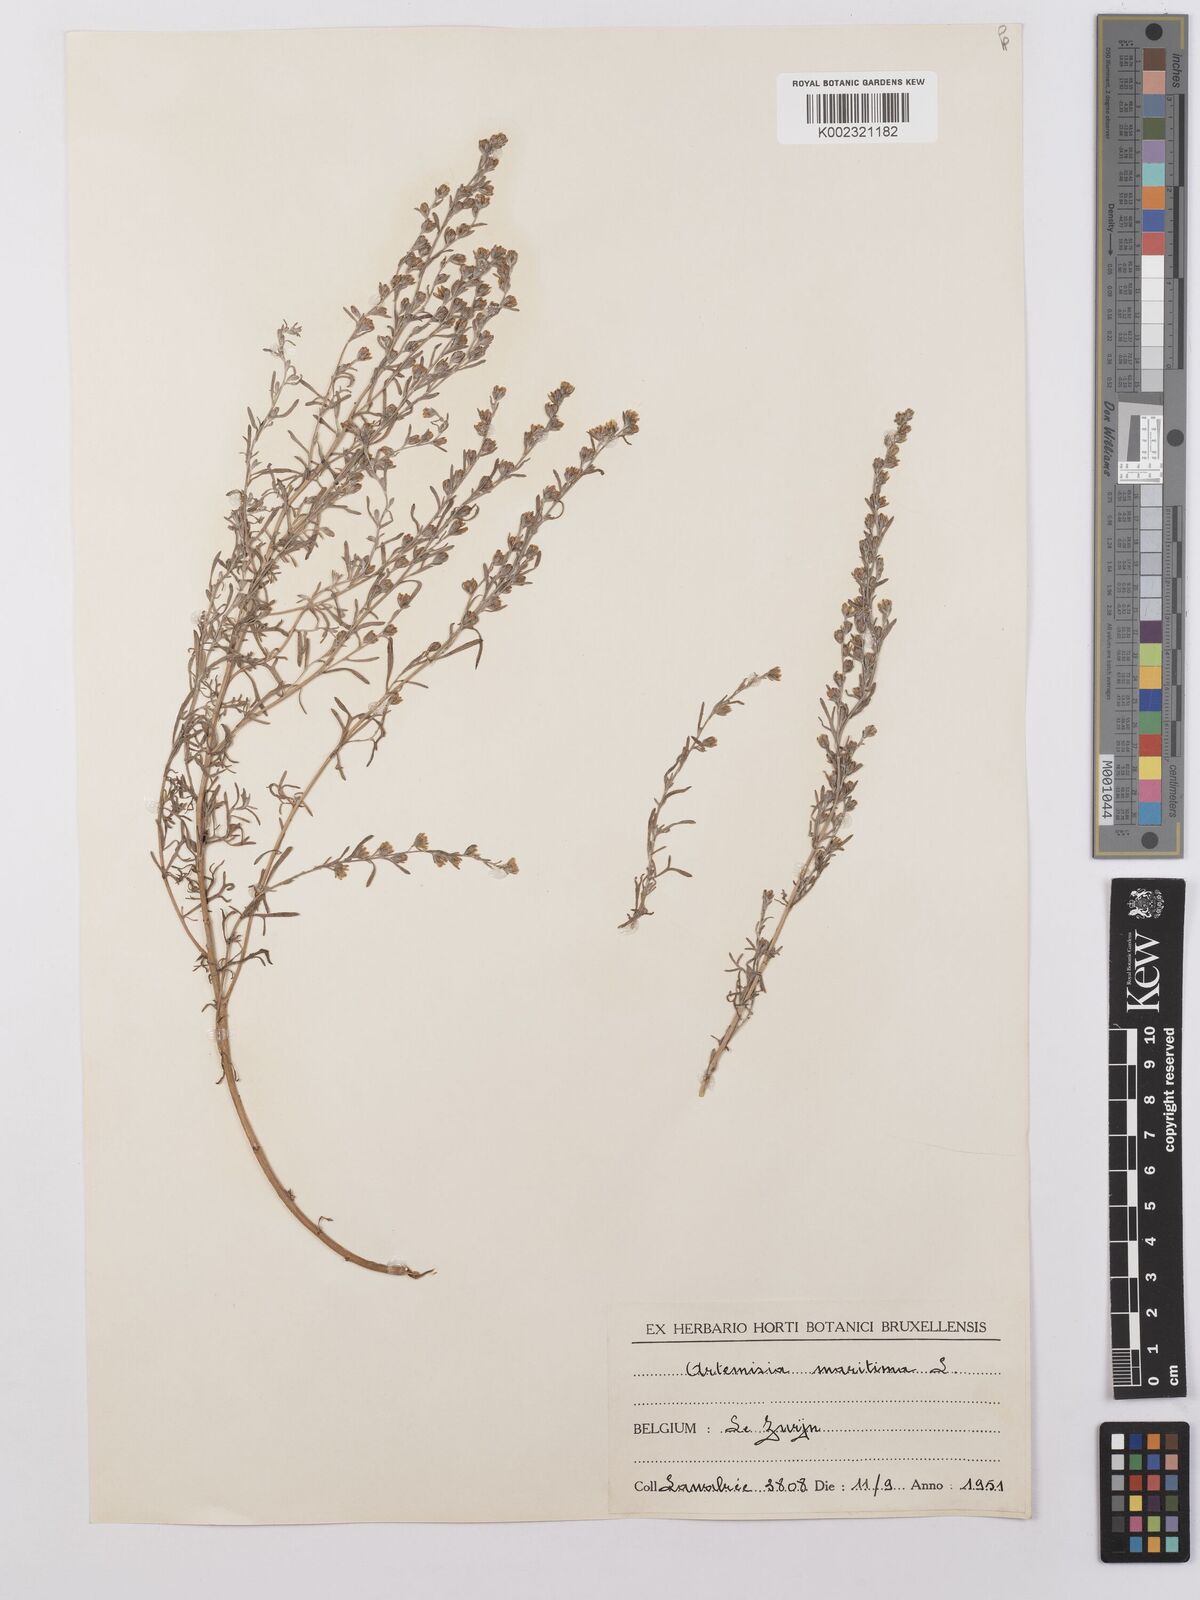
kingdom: Plantae
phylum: Tracheophyta
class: Magnoliopsida
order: Asterales
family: Asteraceae
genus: Artemisia
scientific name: Artemisia maritima
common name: Wormseed
